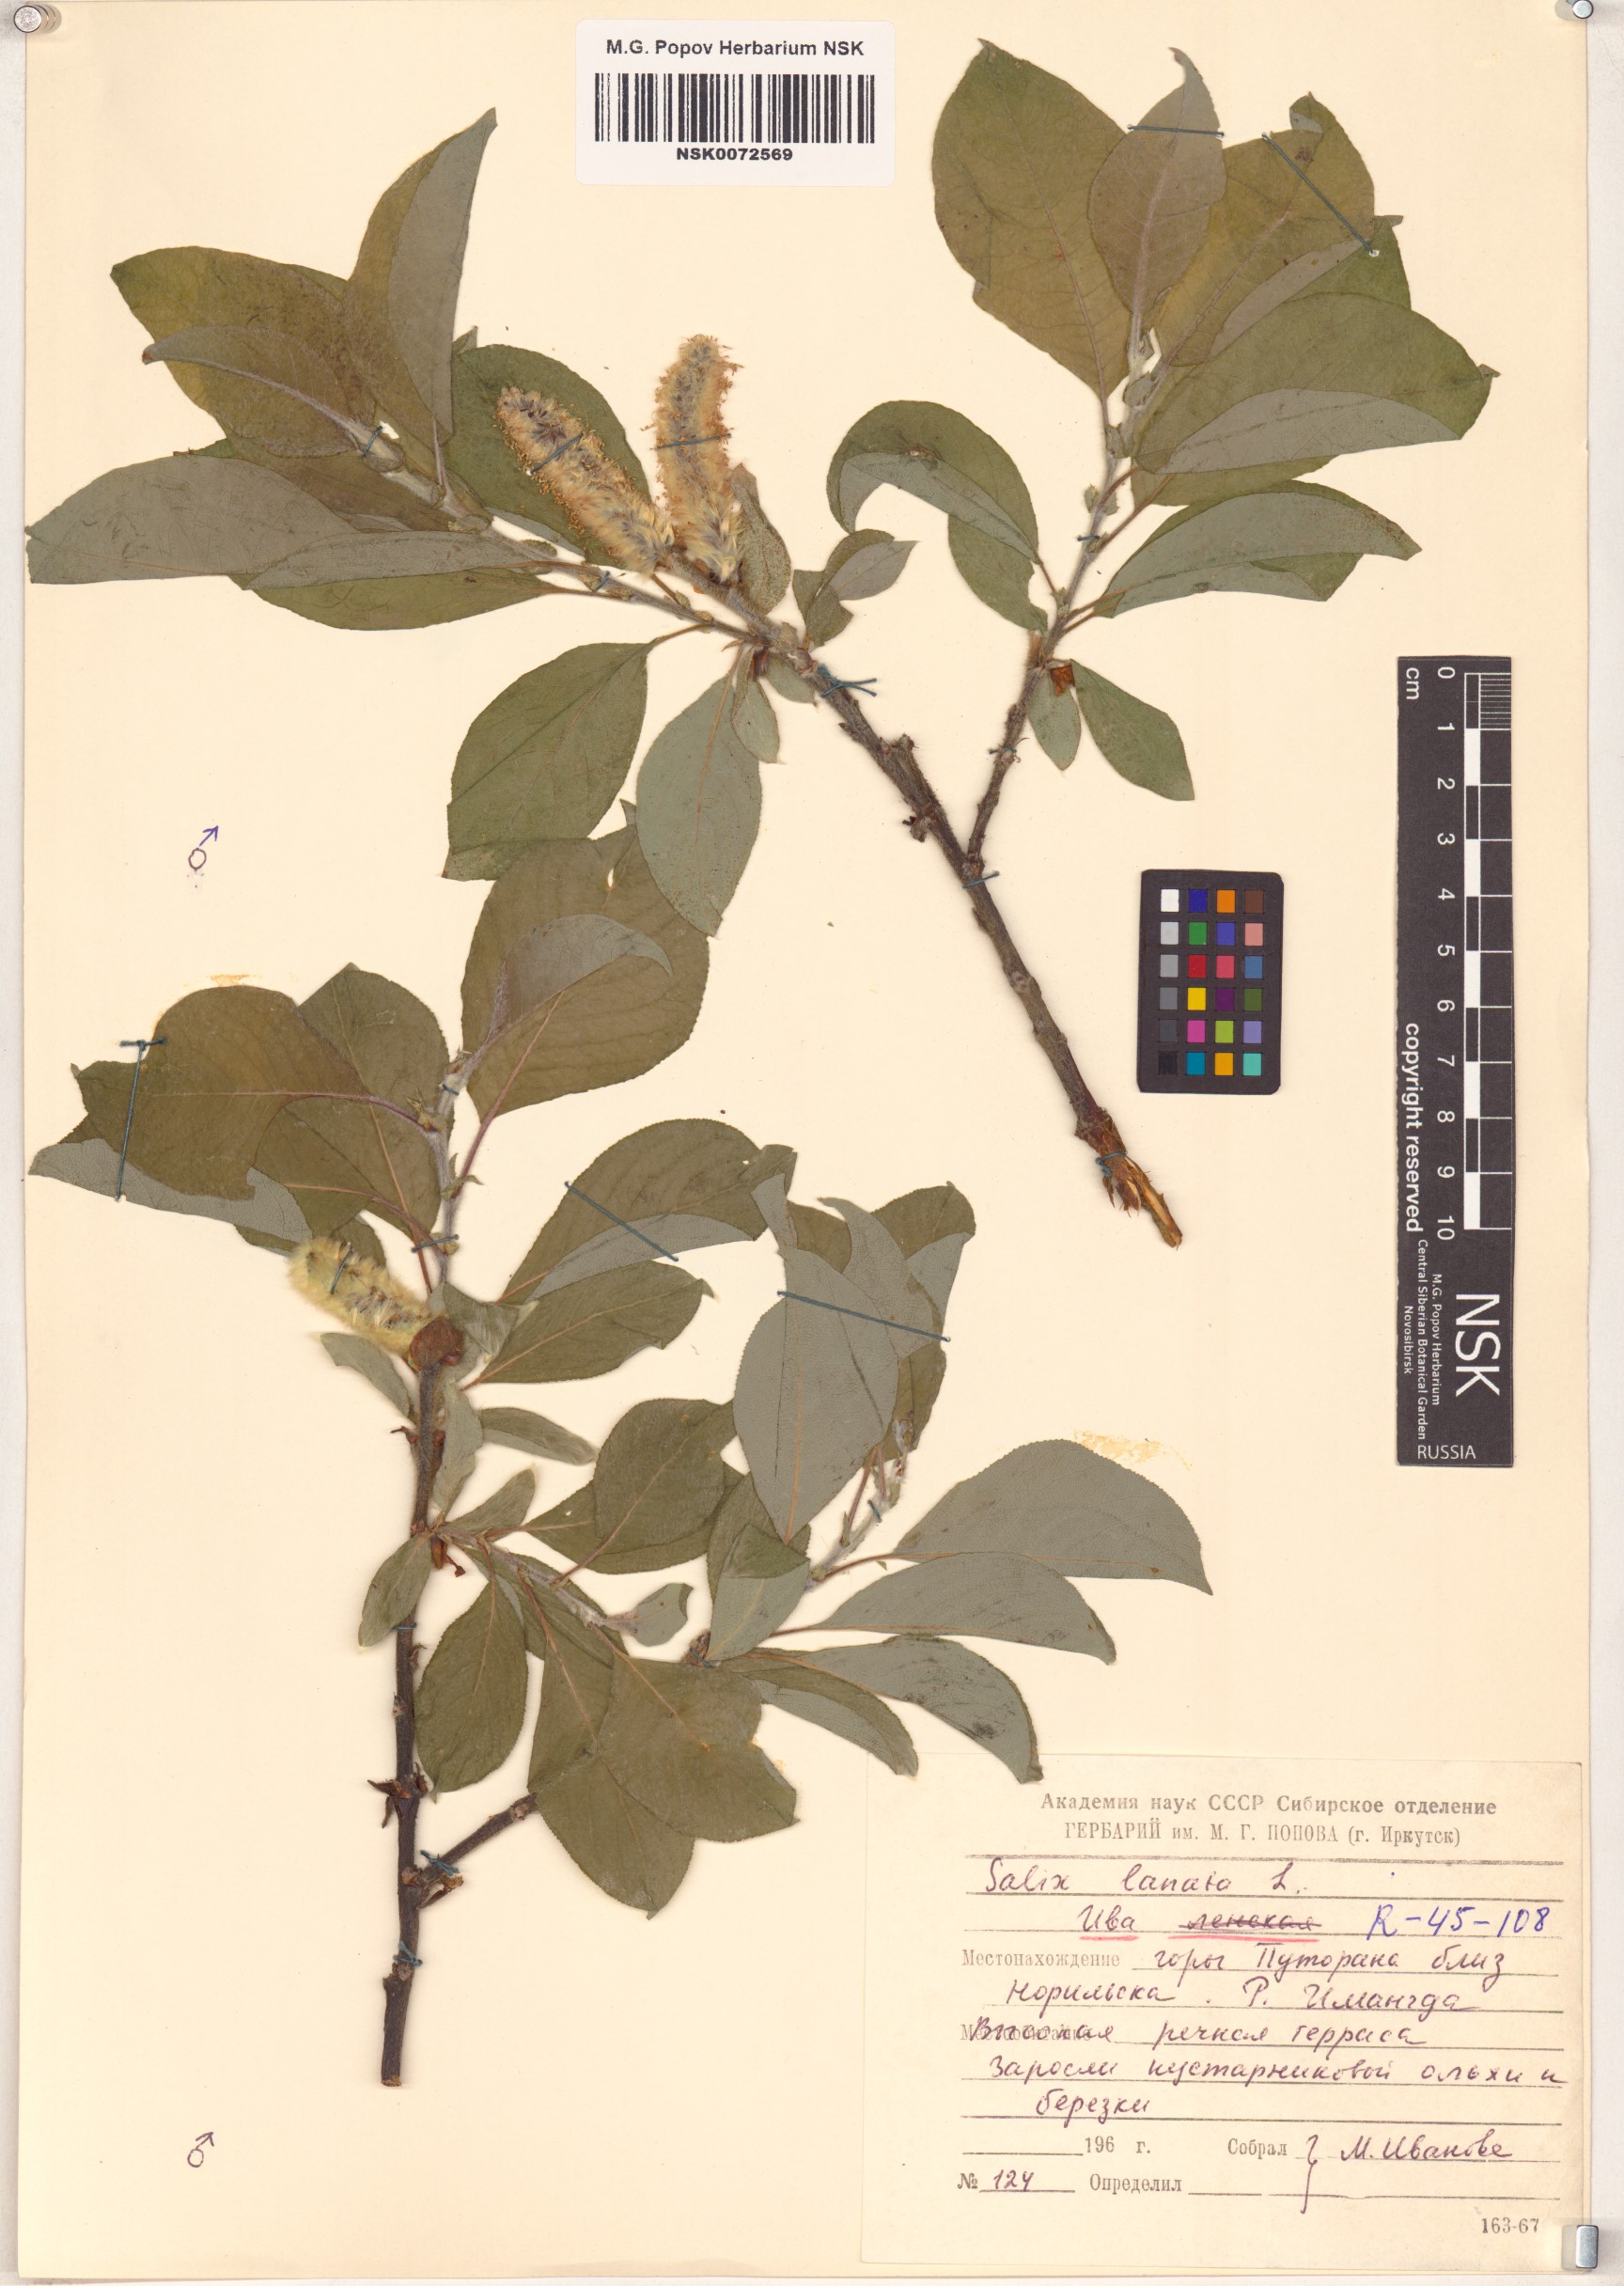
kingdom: Plantae
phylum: Tracheophyta
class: Magnoliopsida
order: Malpighiales
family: Salicaceae
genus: Salix
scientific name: Salix lanata
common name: Woolly willow
